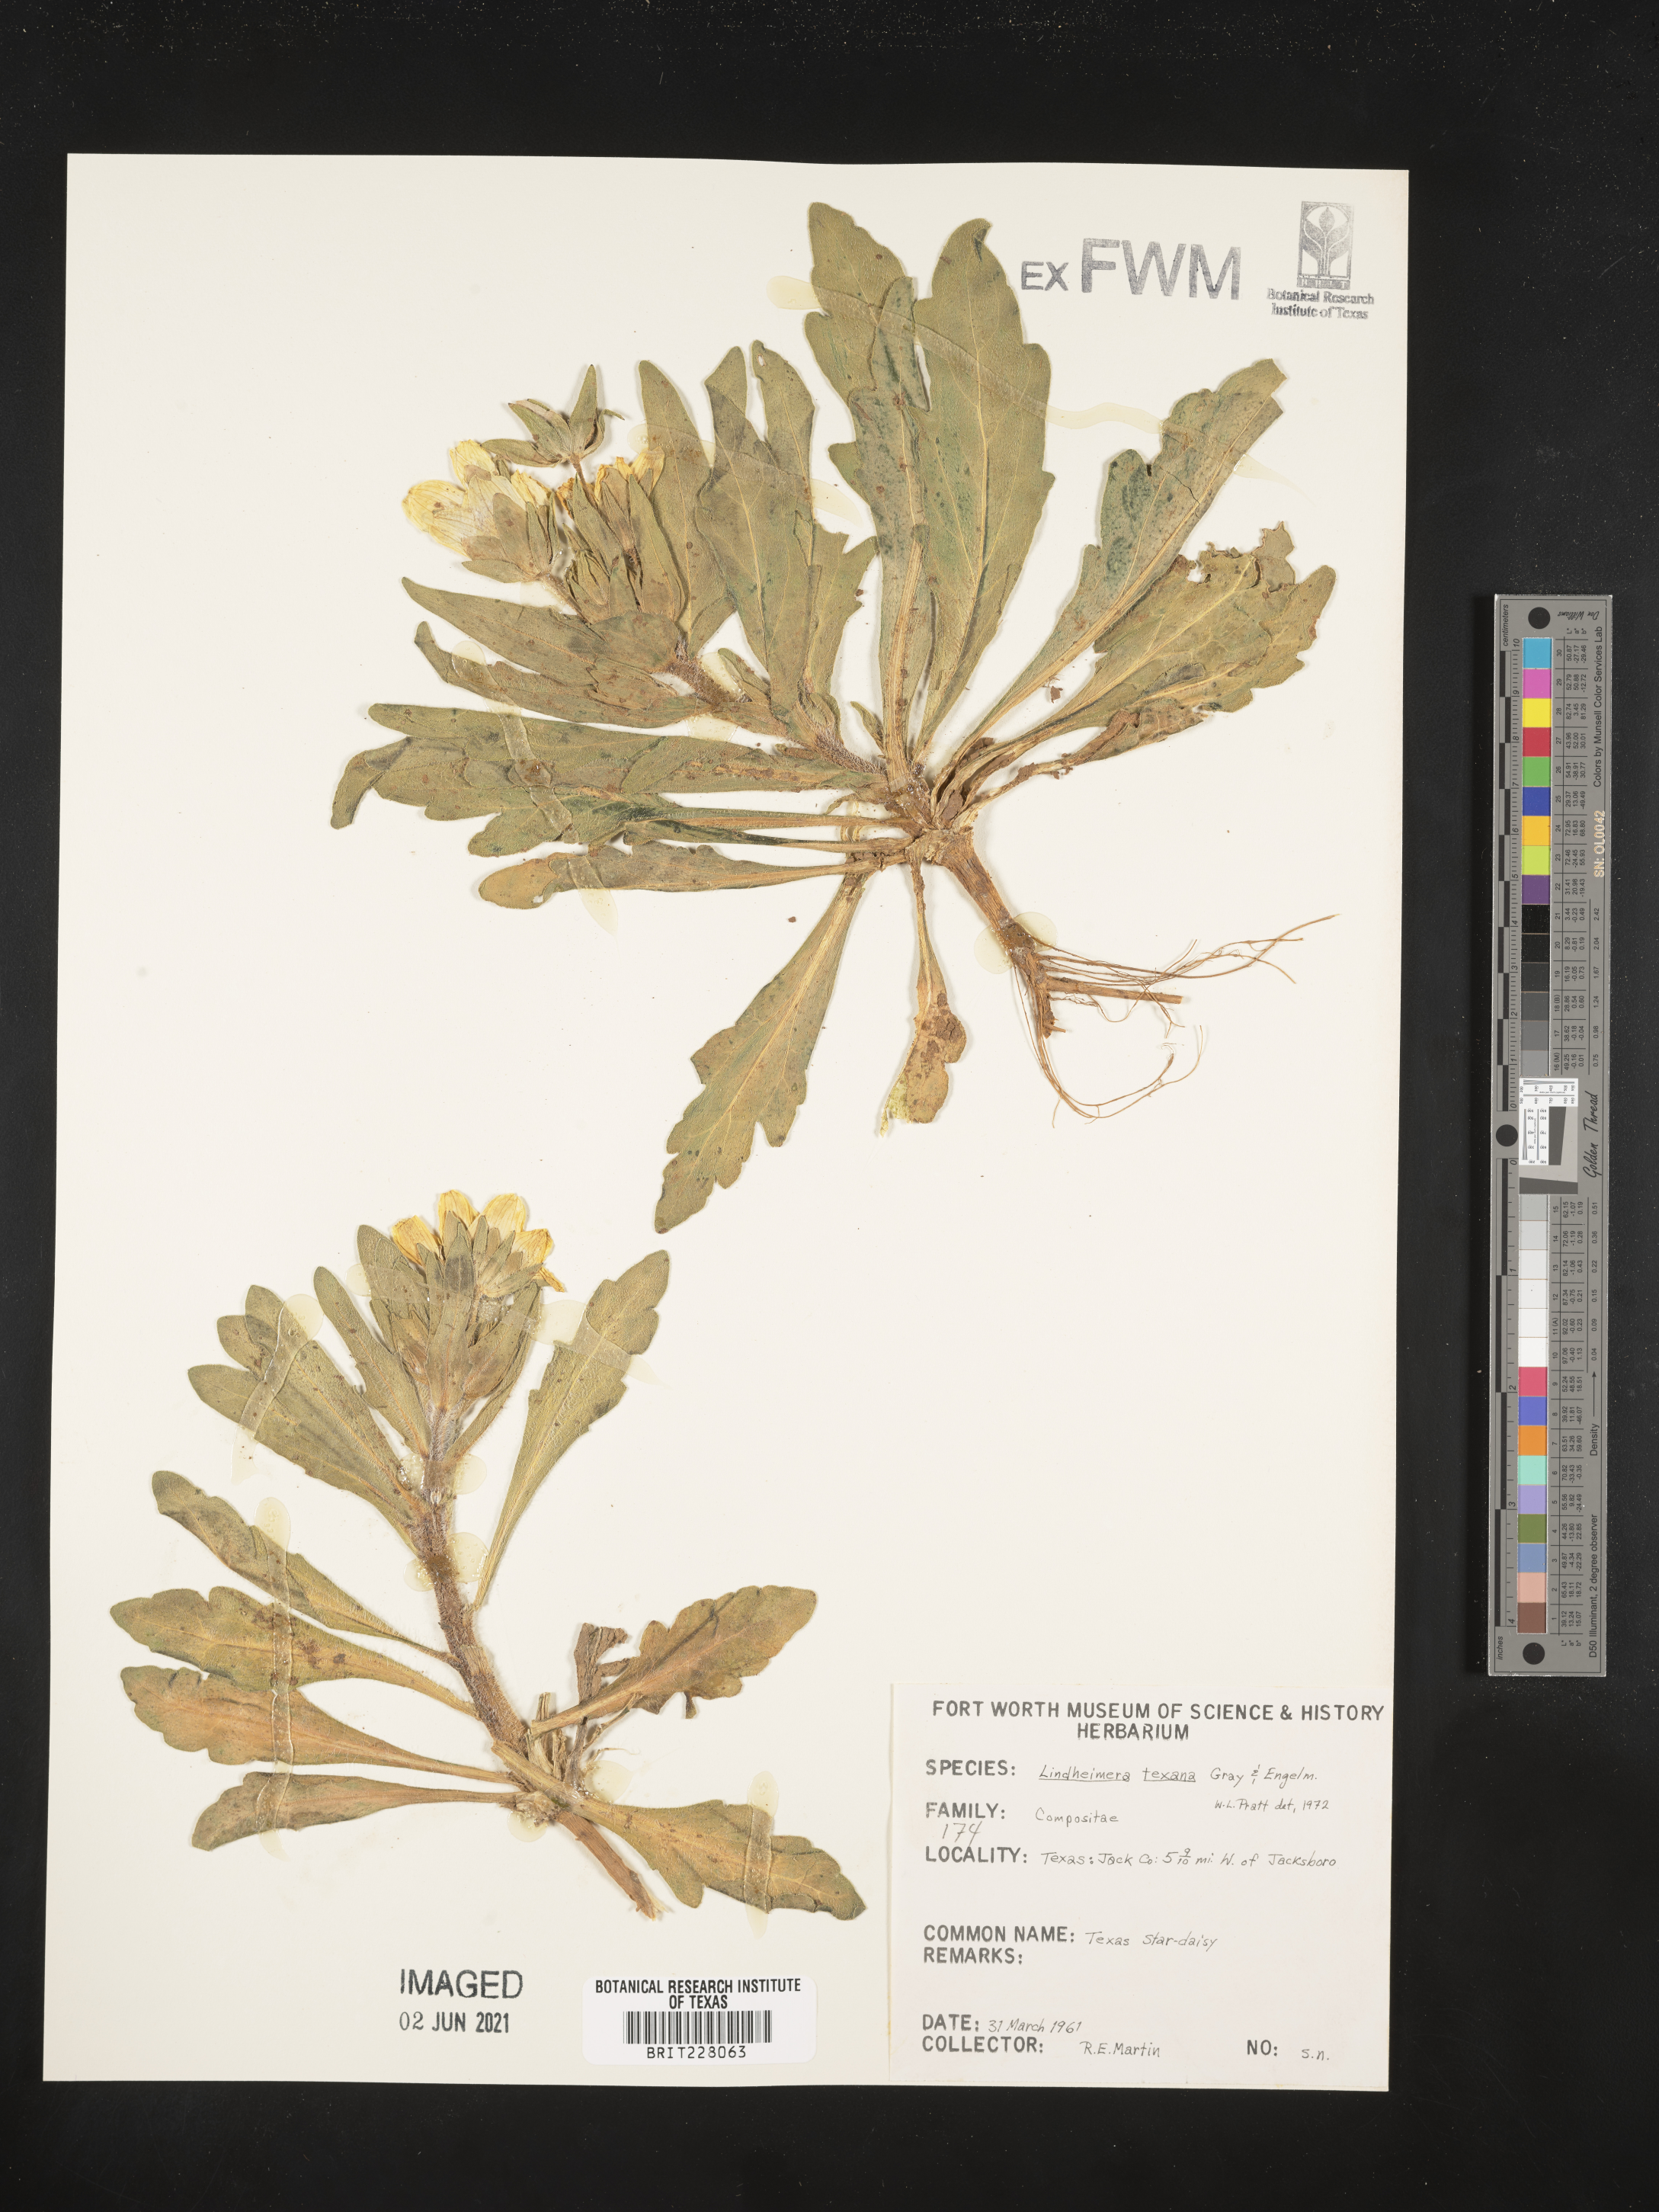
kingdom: Plantae
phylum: Tracheophyta
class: Magnoliopsida
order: Asterales
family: Asteraceae
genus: Lindheimera
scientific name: Lindheimera texana
